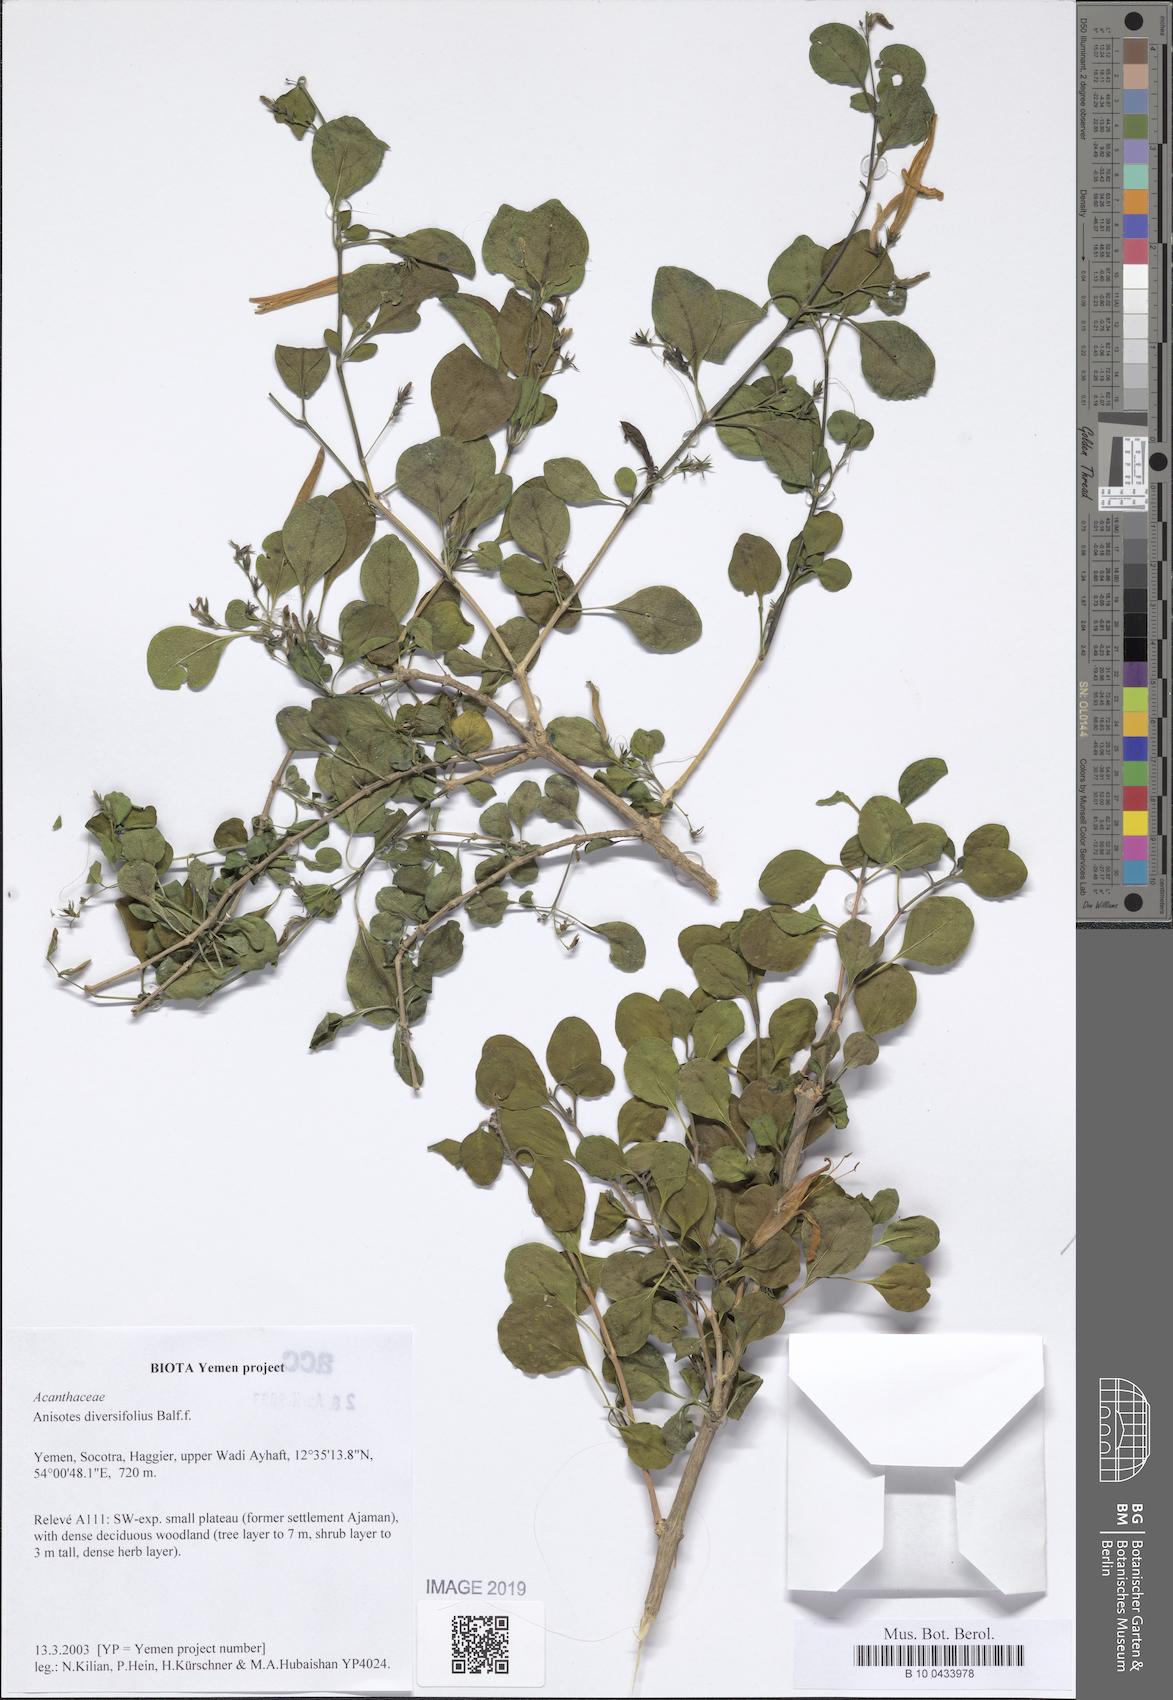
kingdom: Plantae
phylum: Tracheophyta
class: Magnoliopsida
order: Lamiales
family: Acanthaceae
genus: Anisotes
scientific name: Anisotes diversifolius
